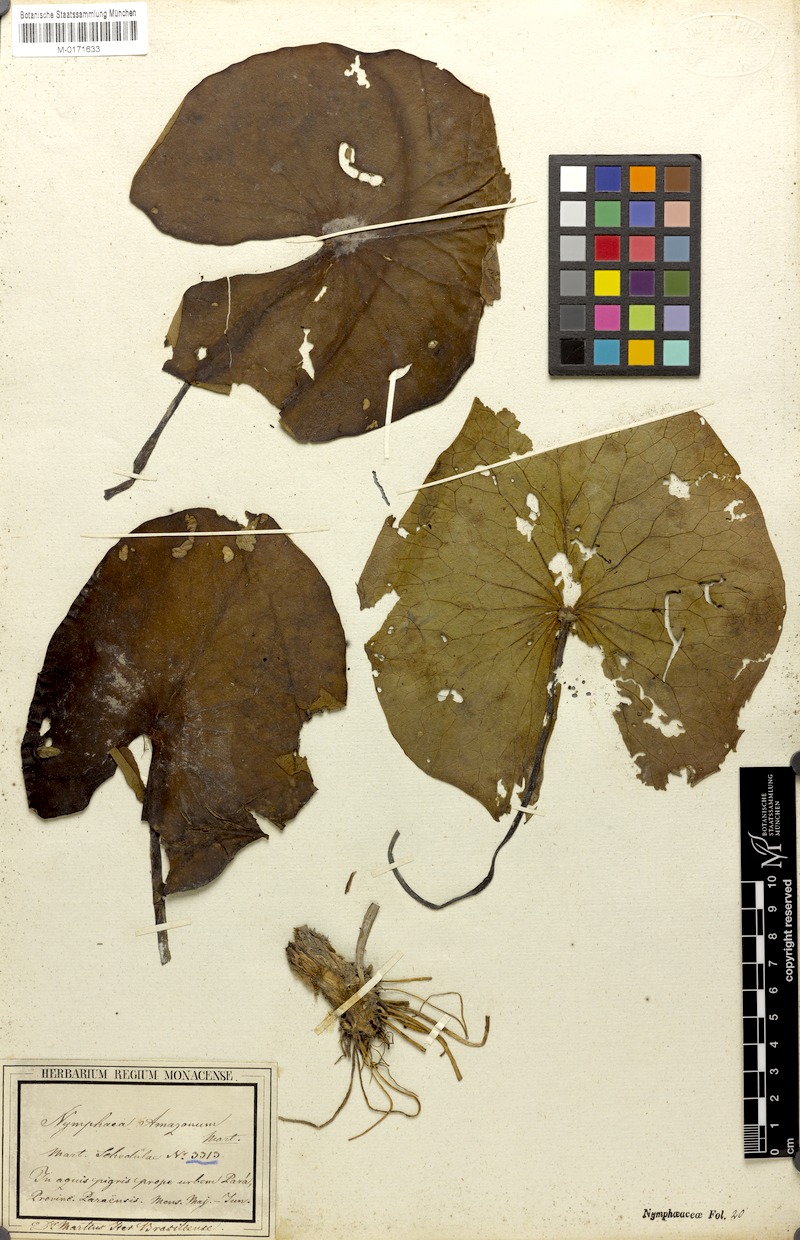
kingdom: Plantae
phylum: Tracheophyta
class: Magnoliopsida
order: Nymphaeales
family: Nymphaeaceae
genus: Nymphaea
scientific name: Nymphaea amazonum
